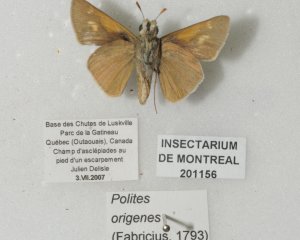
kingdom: Animalia
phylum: Arthropoda
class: Insecta
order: Lepidoptera
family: Hesperiidae
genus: Polites
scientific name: Polites
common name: Crossline Skipper
